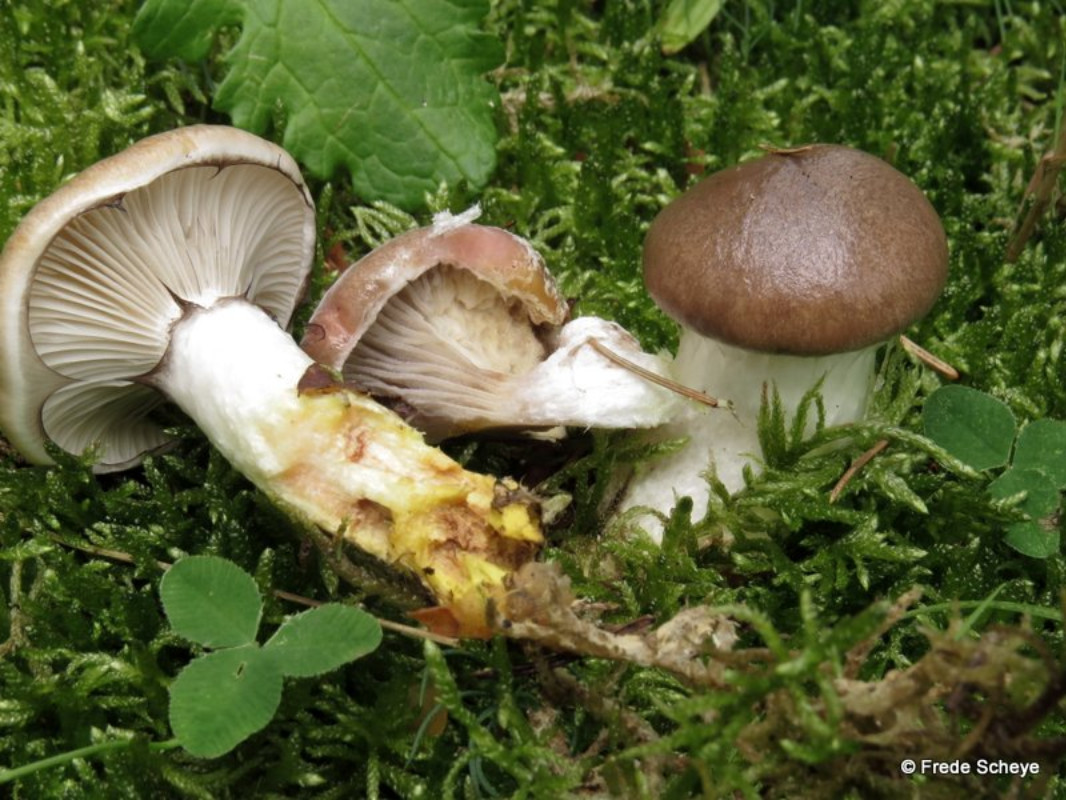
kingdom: Fungi
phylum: Basidiomycota
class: Agaricomycetes
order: Boletales
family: Gomphidiaceae
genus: Gomphidius
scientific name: Gomphidius glutinosus
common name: grå slimslør
